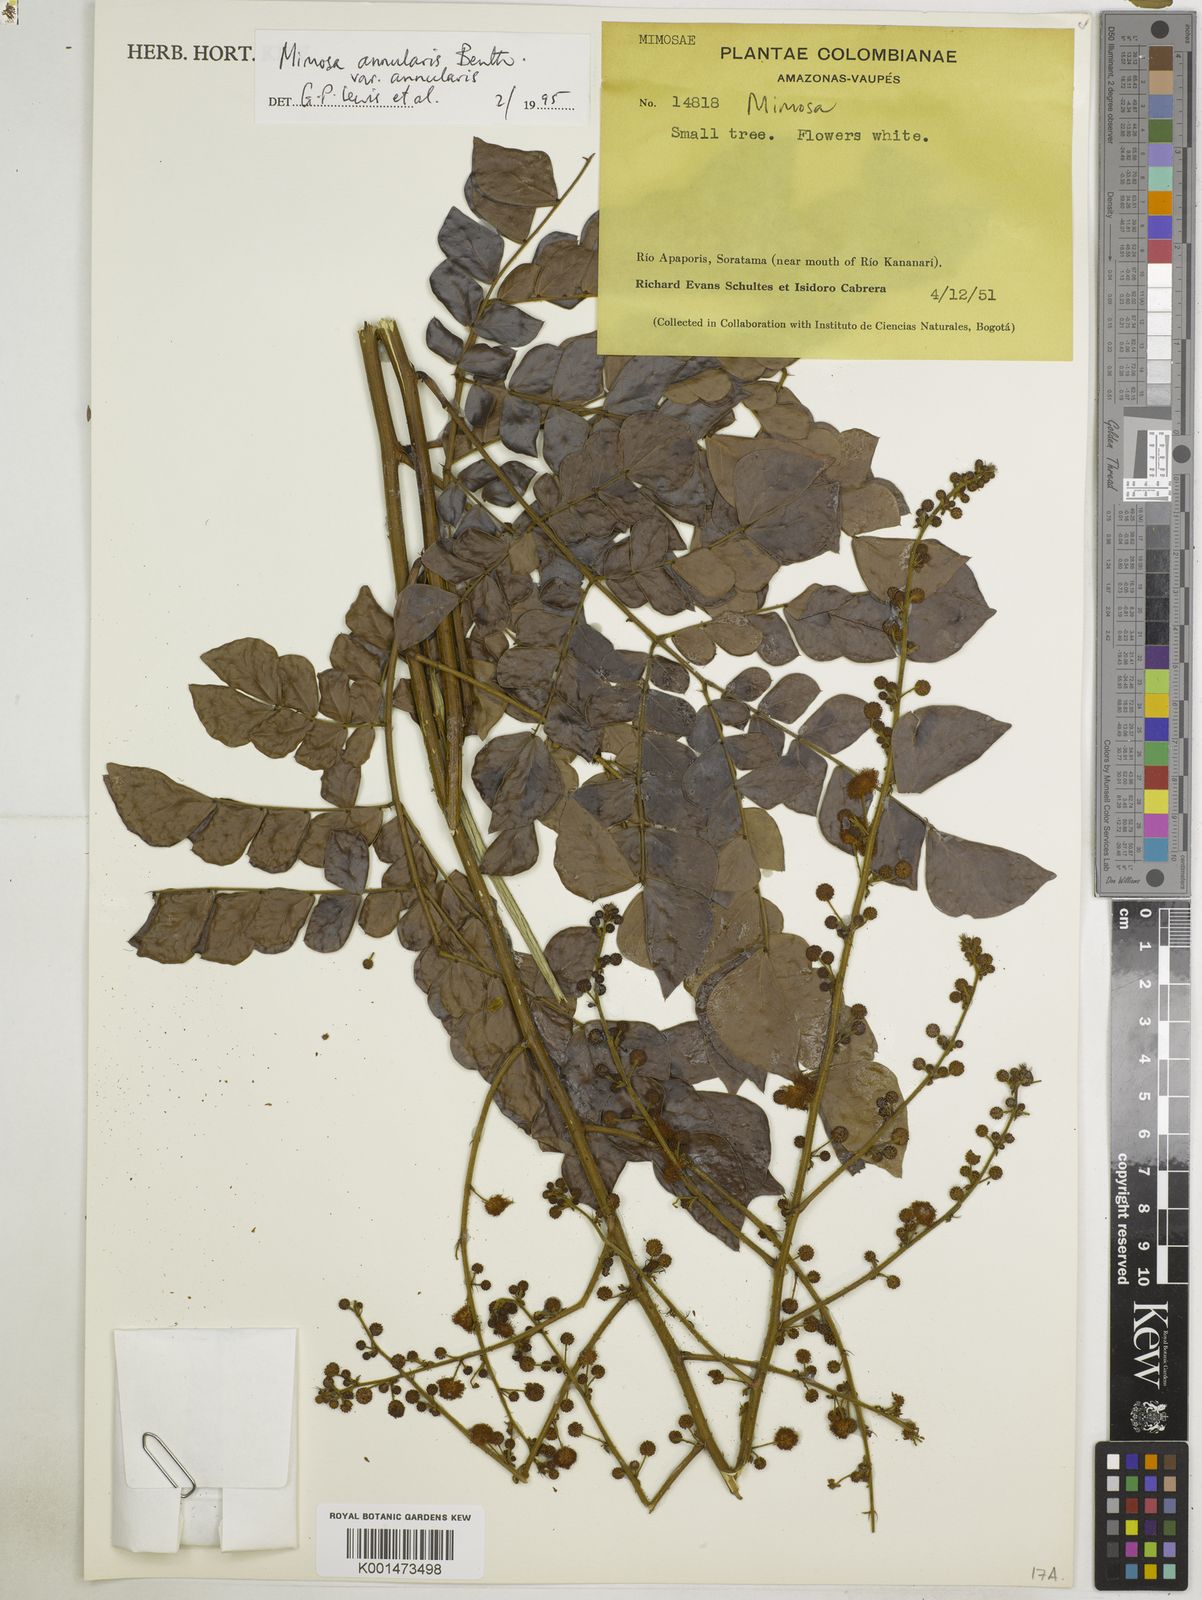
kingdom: Plantae
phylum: Tracheophyta
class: Magnoliopsida
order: Fabales
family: Fabaceae
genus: Mimosa
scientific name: Mimosa annularis
